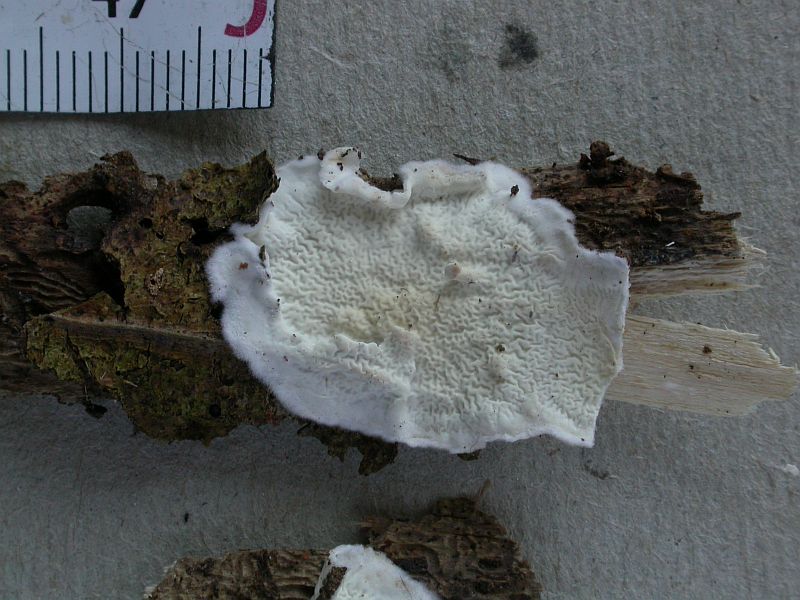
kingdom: Fungi
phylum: Basidiomycota
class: Agaricomycetes
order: Polyporales
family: Irpicaceae
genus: Byssomerulius
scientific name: Byssomerulius corium
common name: læder-åresvamp
